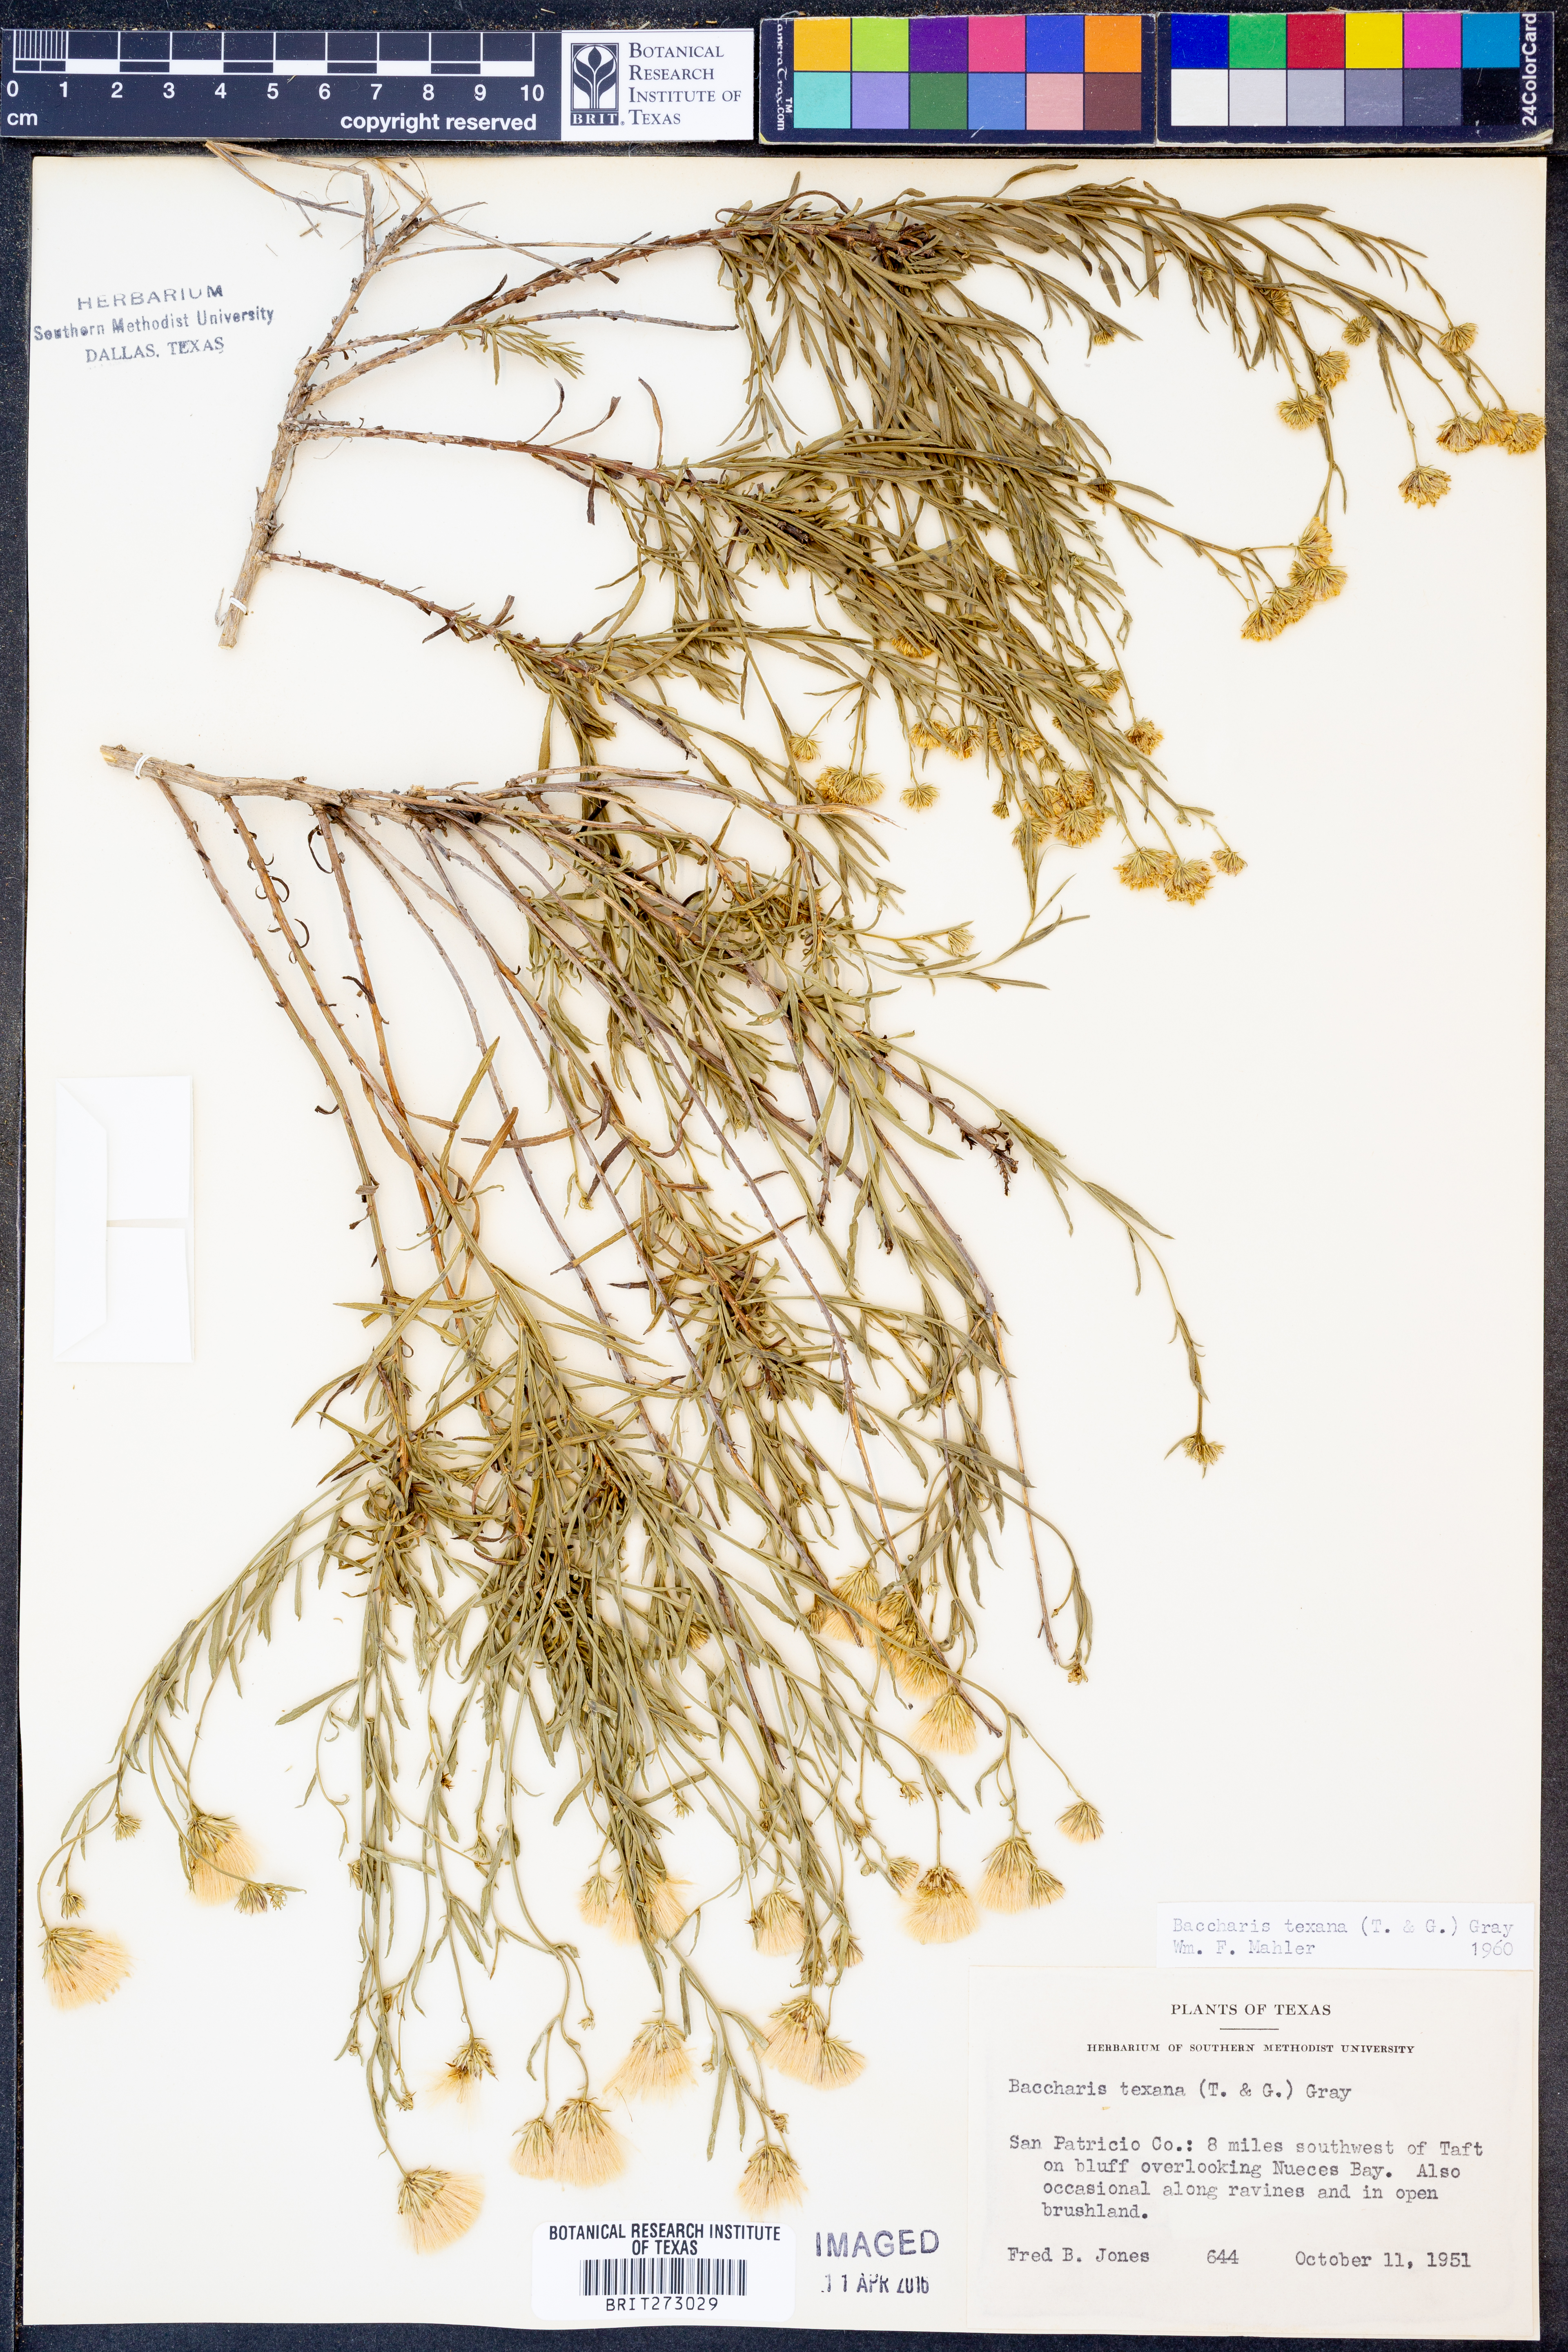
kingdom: Plantae
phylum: Tracheophyta
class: Magnoliopsida
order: Asterales
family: Asteraceae
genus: Baccharis
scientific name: Baccharis texana
